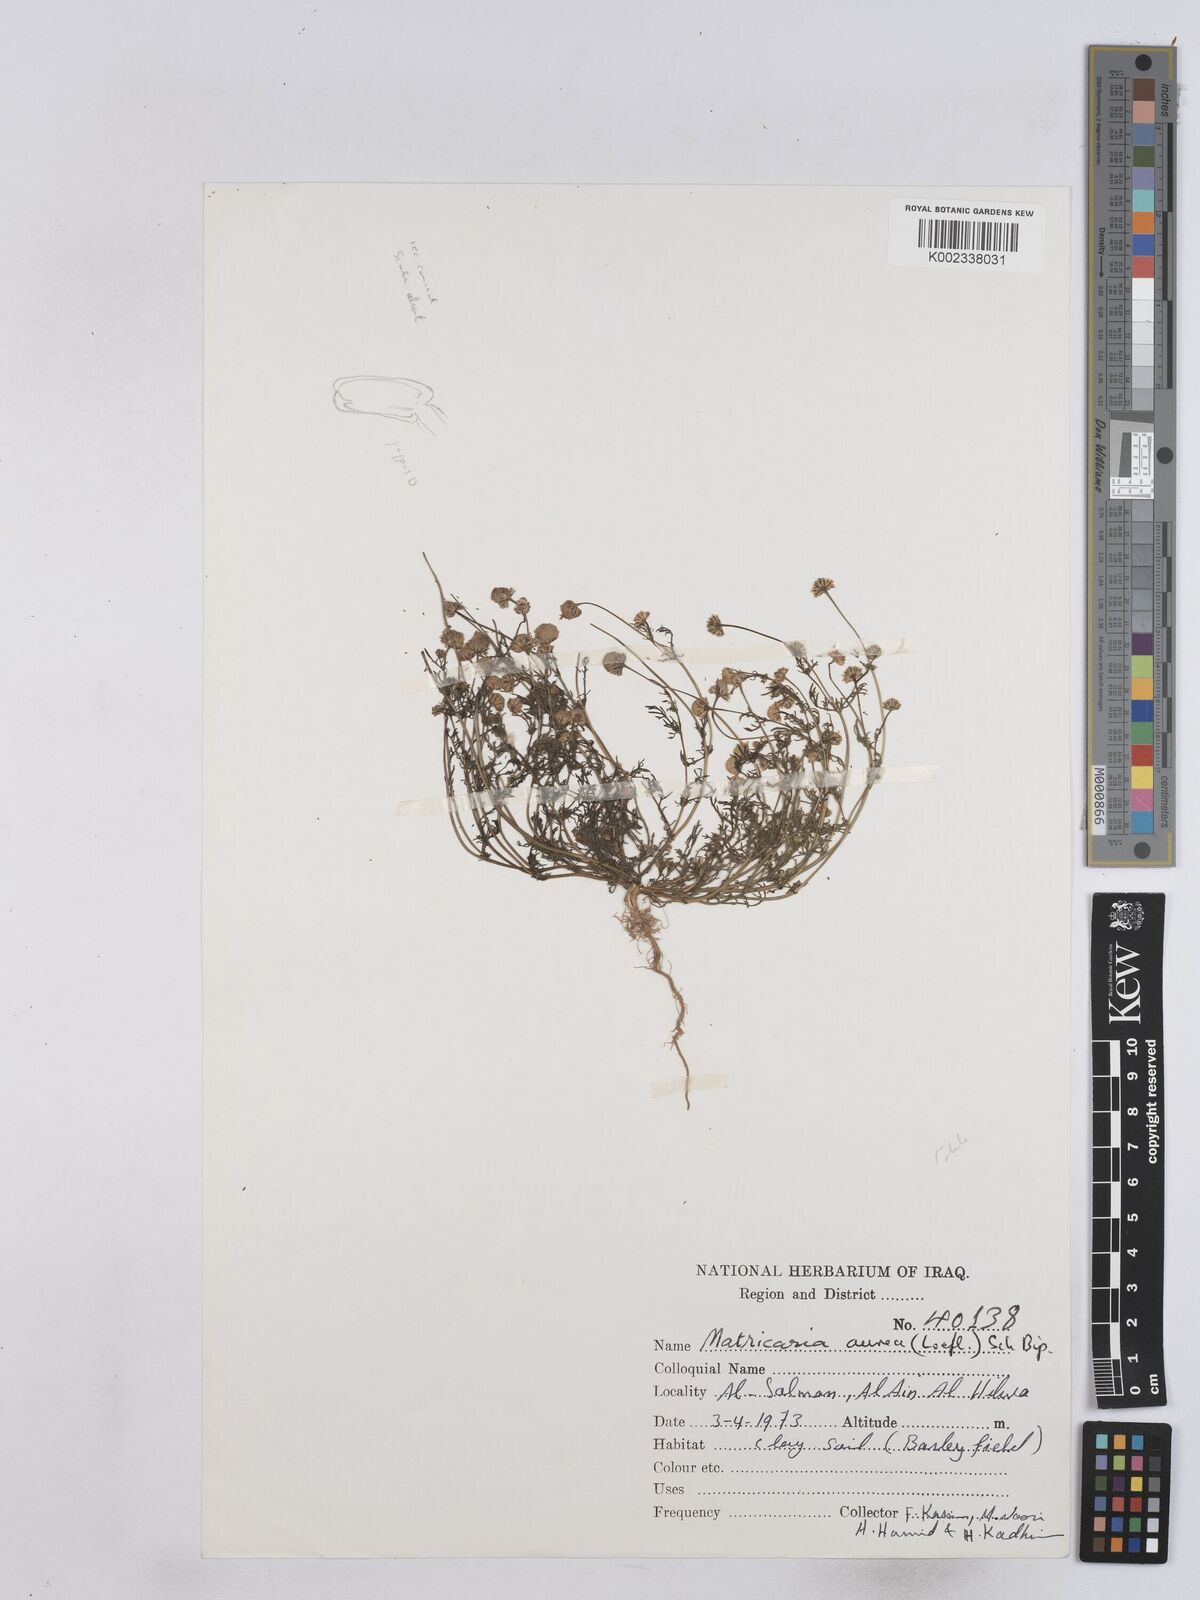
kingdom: Plantae
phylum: Tracheophyta
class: Magnoliopsida
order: Asterales
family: Asteraceae
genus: Matricaria
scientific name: Matricaria aurea
